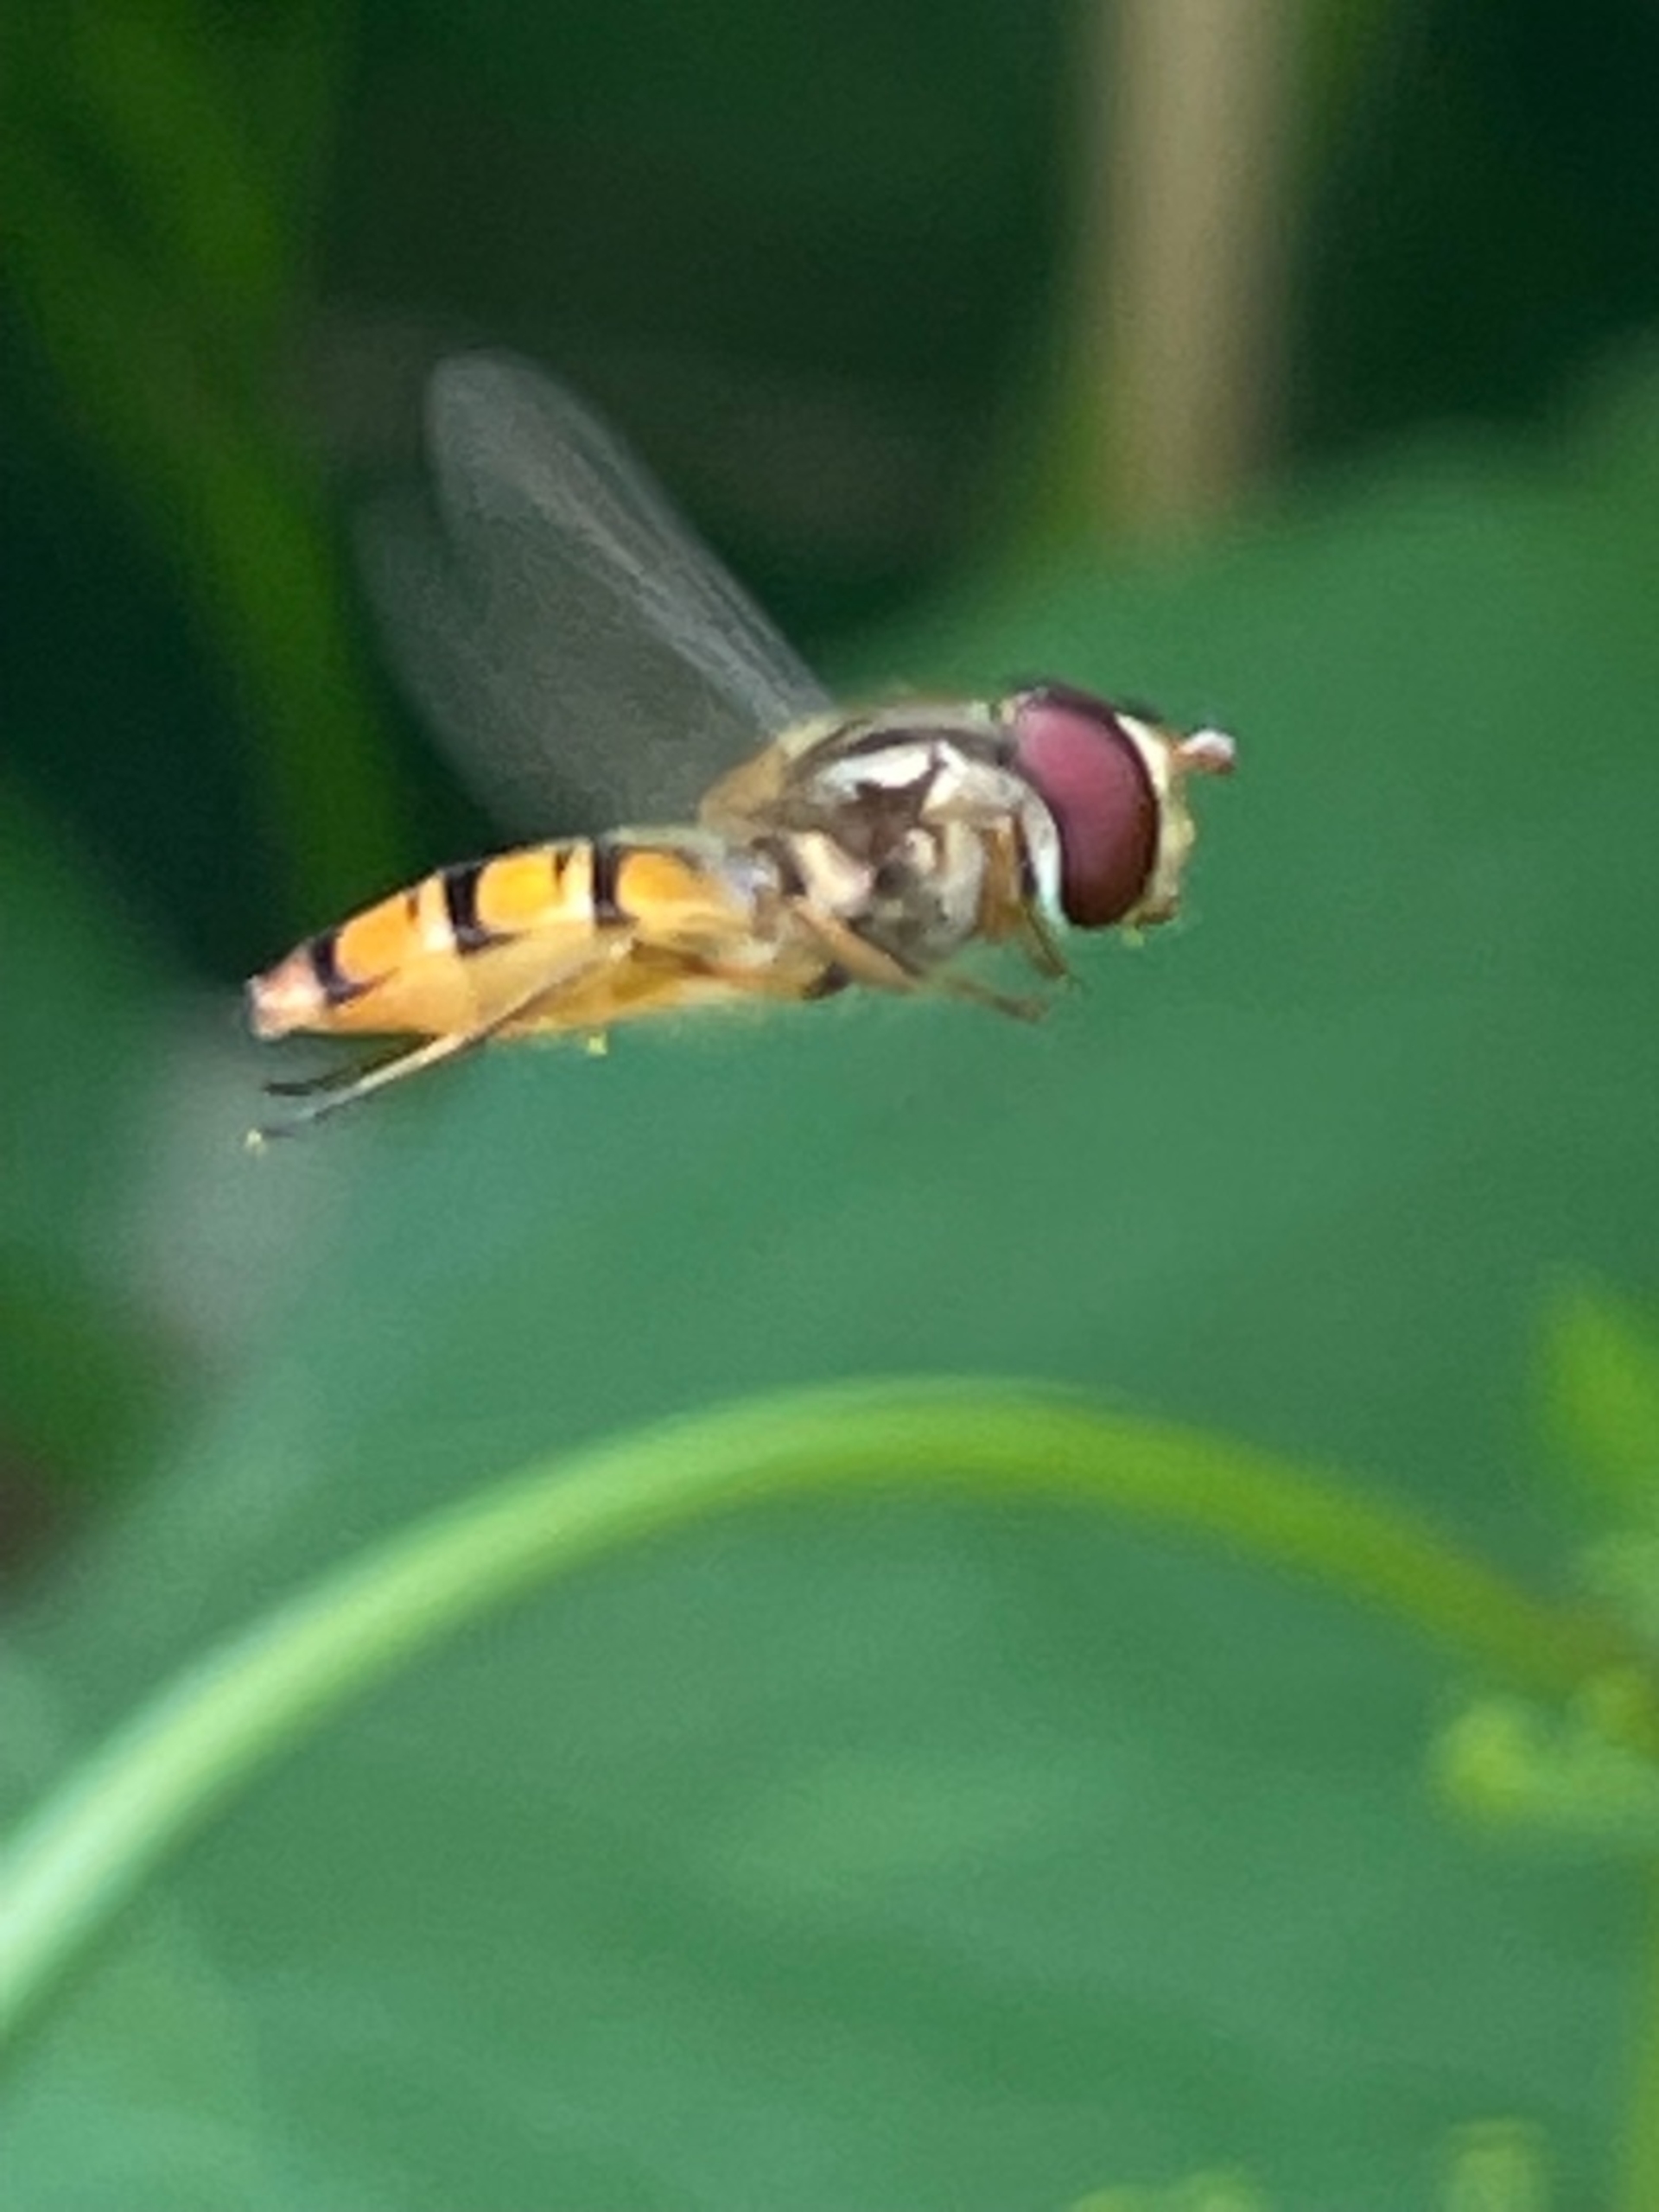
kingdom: Animalia
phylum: Arthropoda
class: Insecta
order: Diptera
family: Syrphidae
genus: Episyrphus
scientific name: Episyrphus balteatus
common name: Dobbeltbåndet svirreflue
